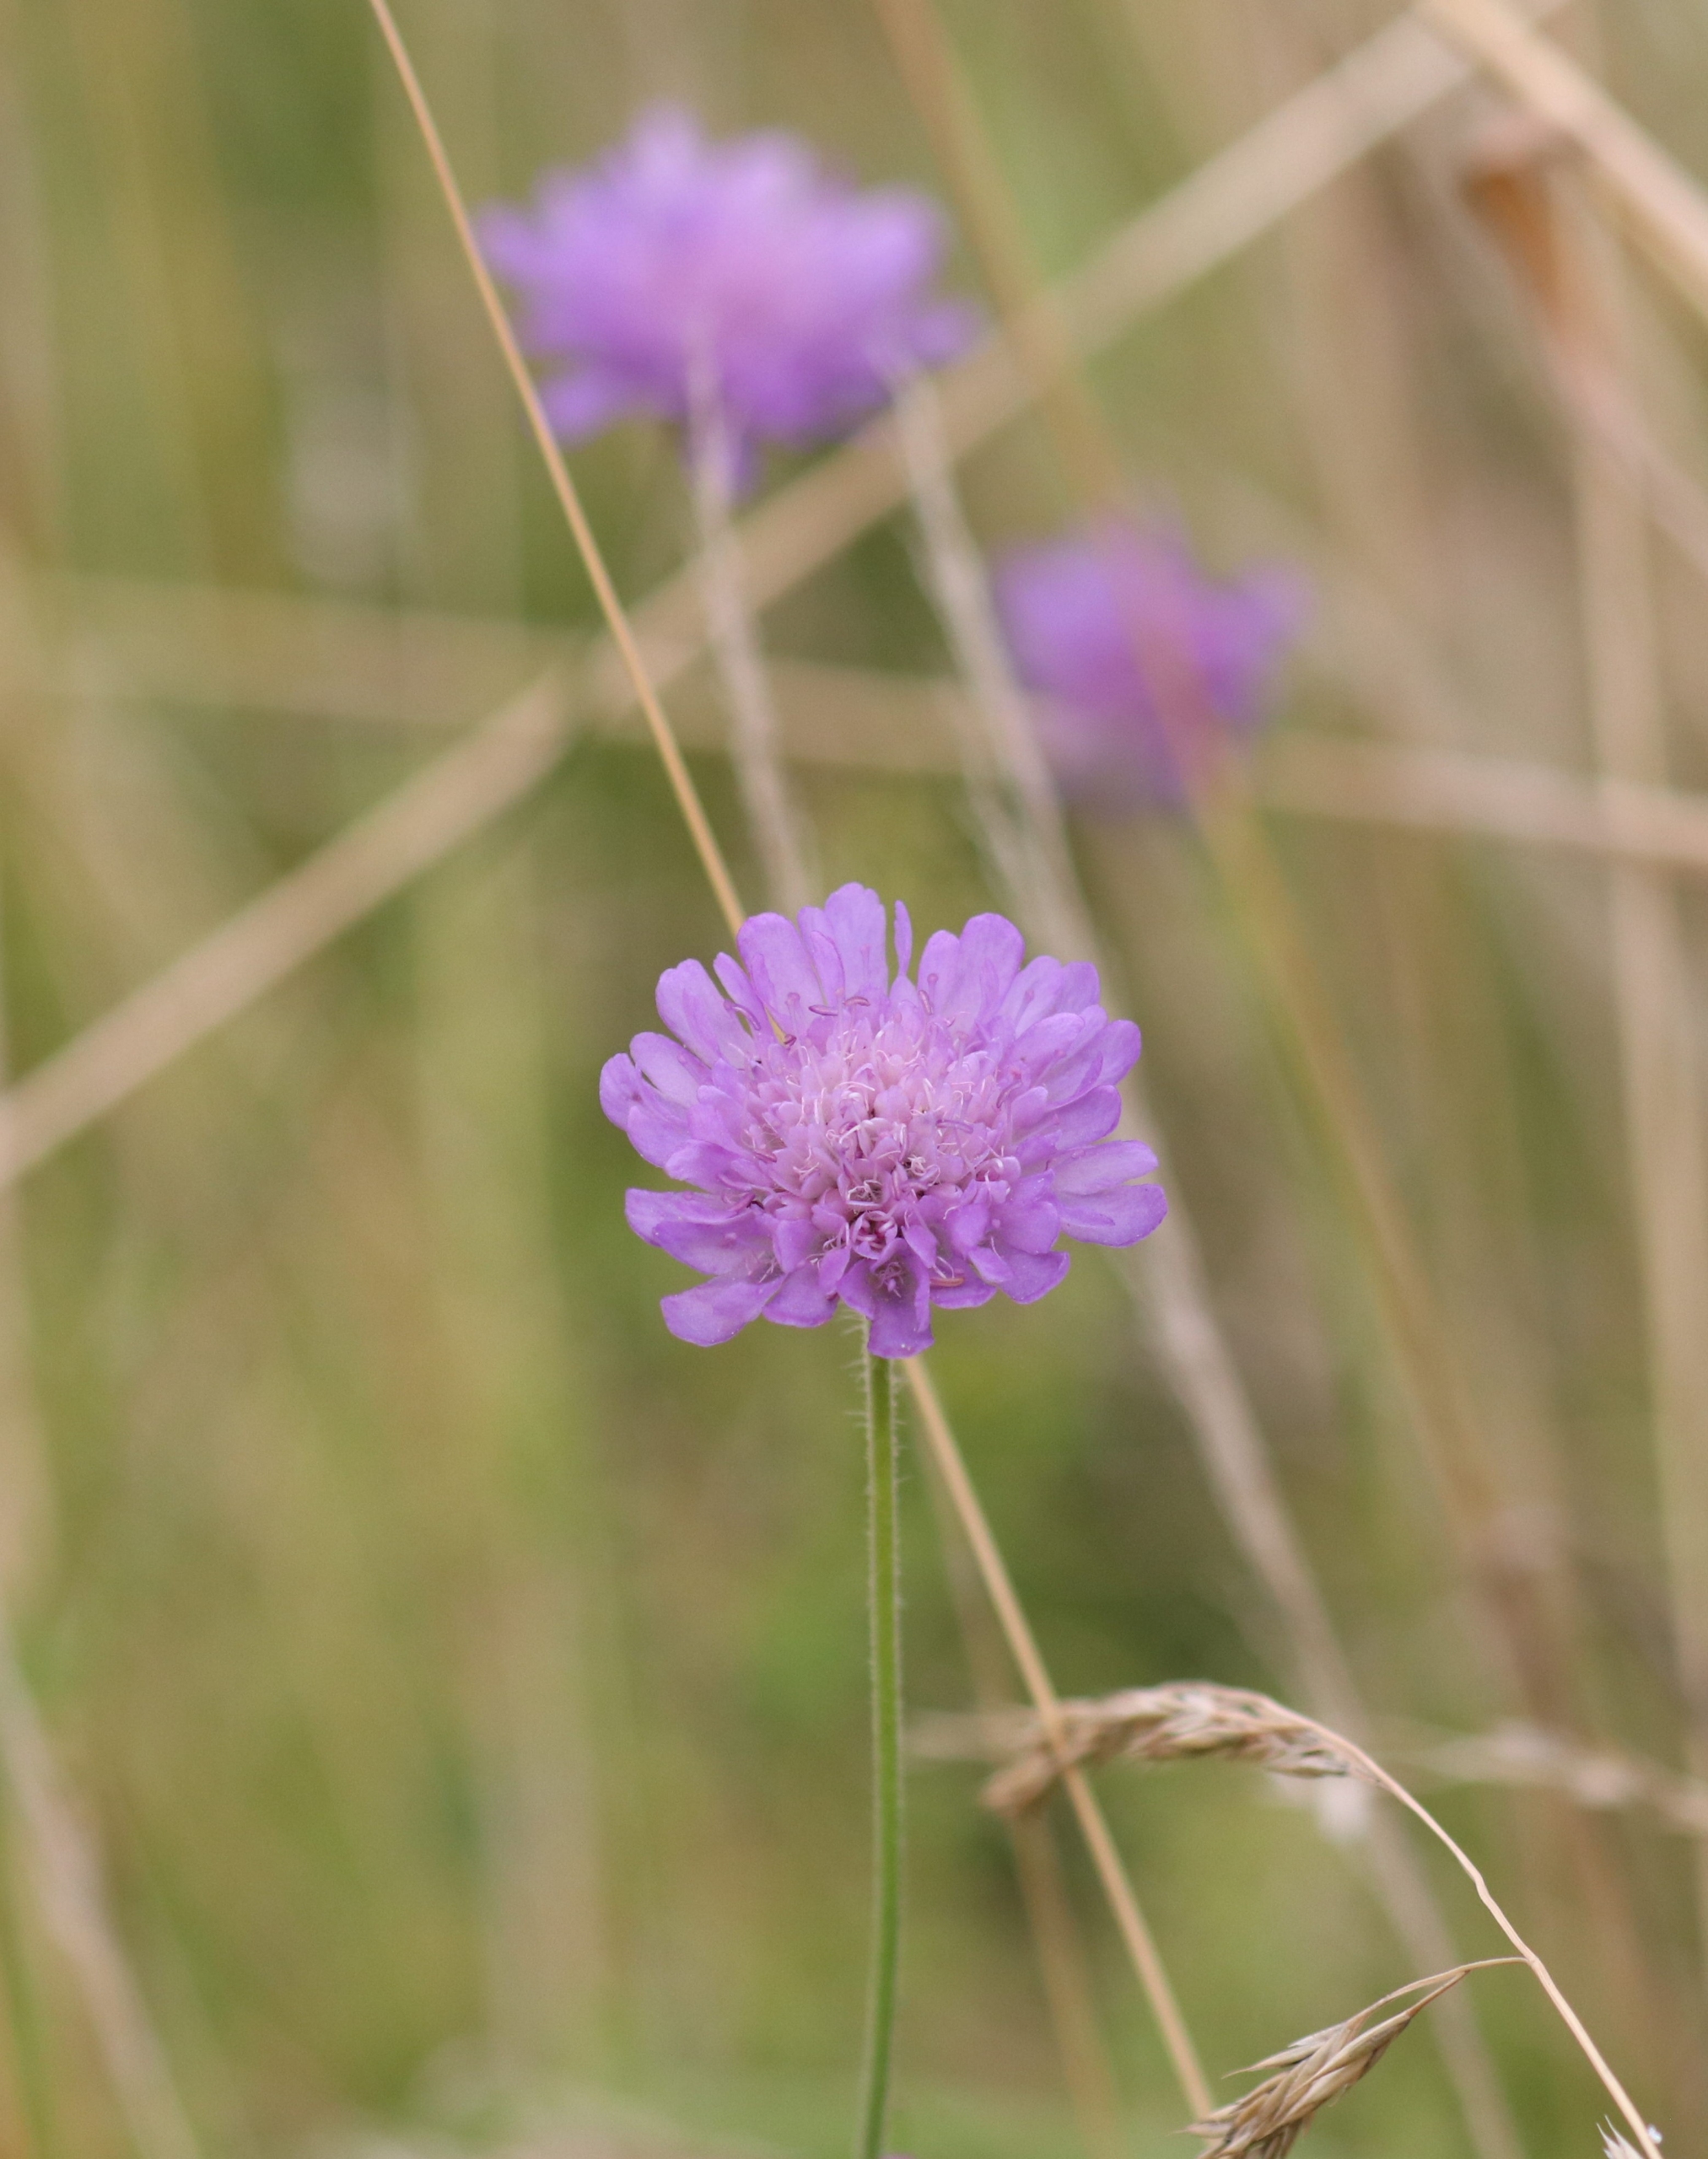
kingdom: Plantae
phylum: Tracheophyta
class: Magnoliopsida
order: Dipsacales
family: Caprifoliaceae
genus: Knautia
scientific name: Knautia arvensis
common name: Blåhat
